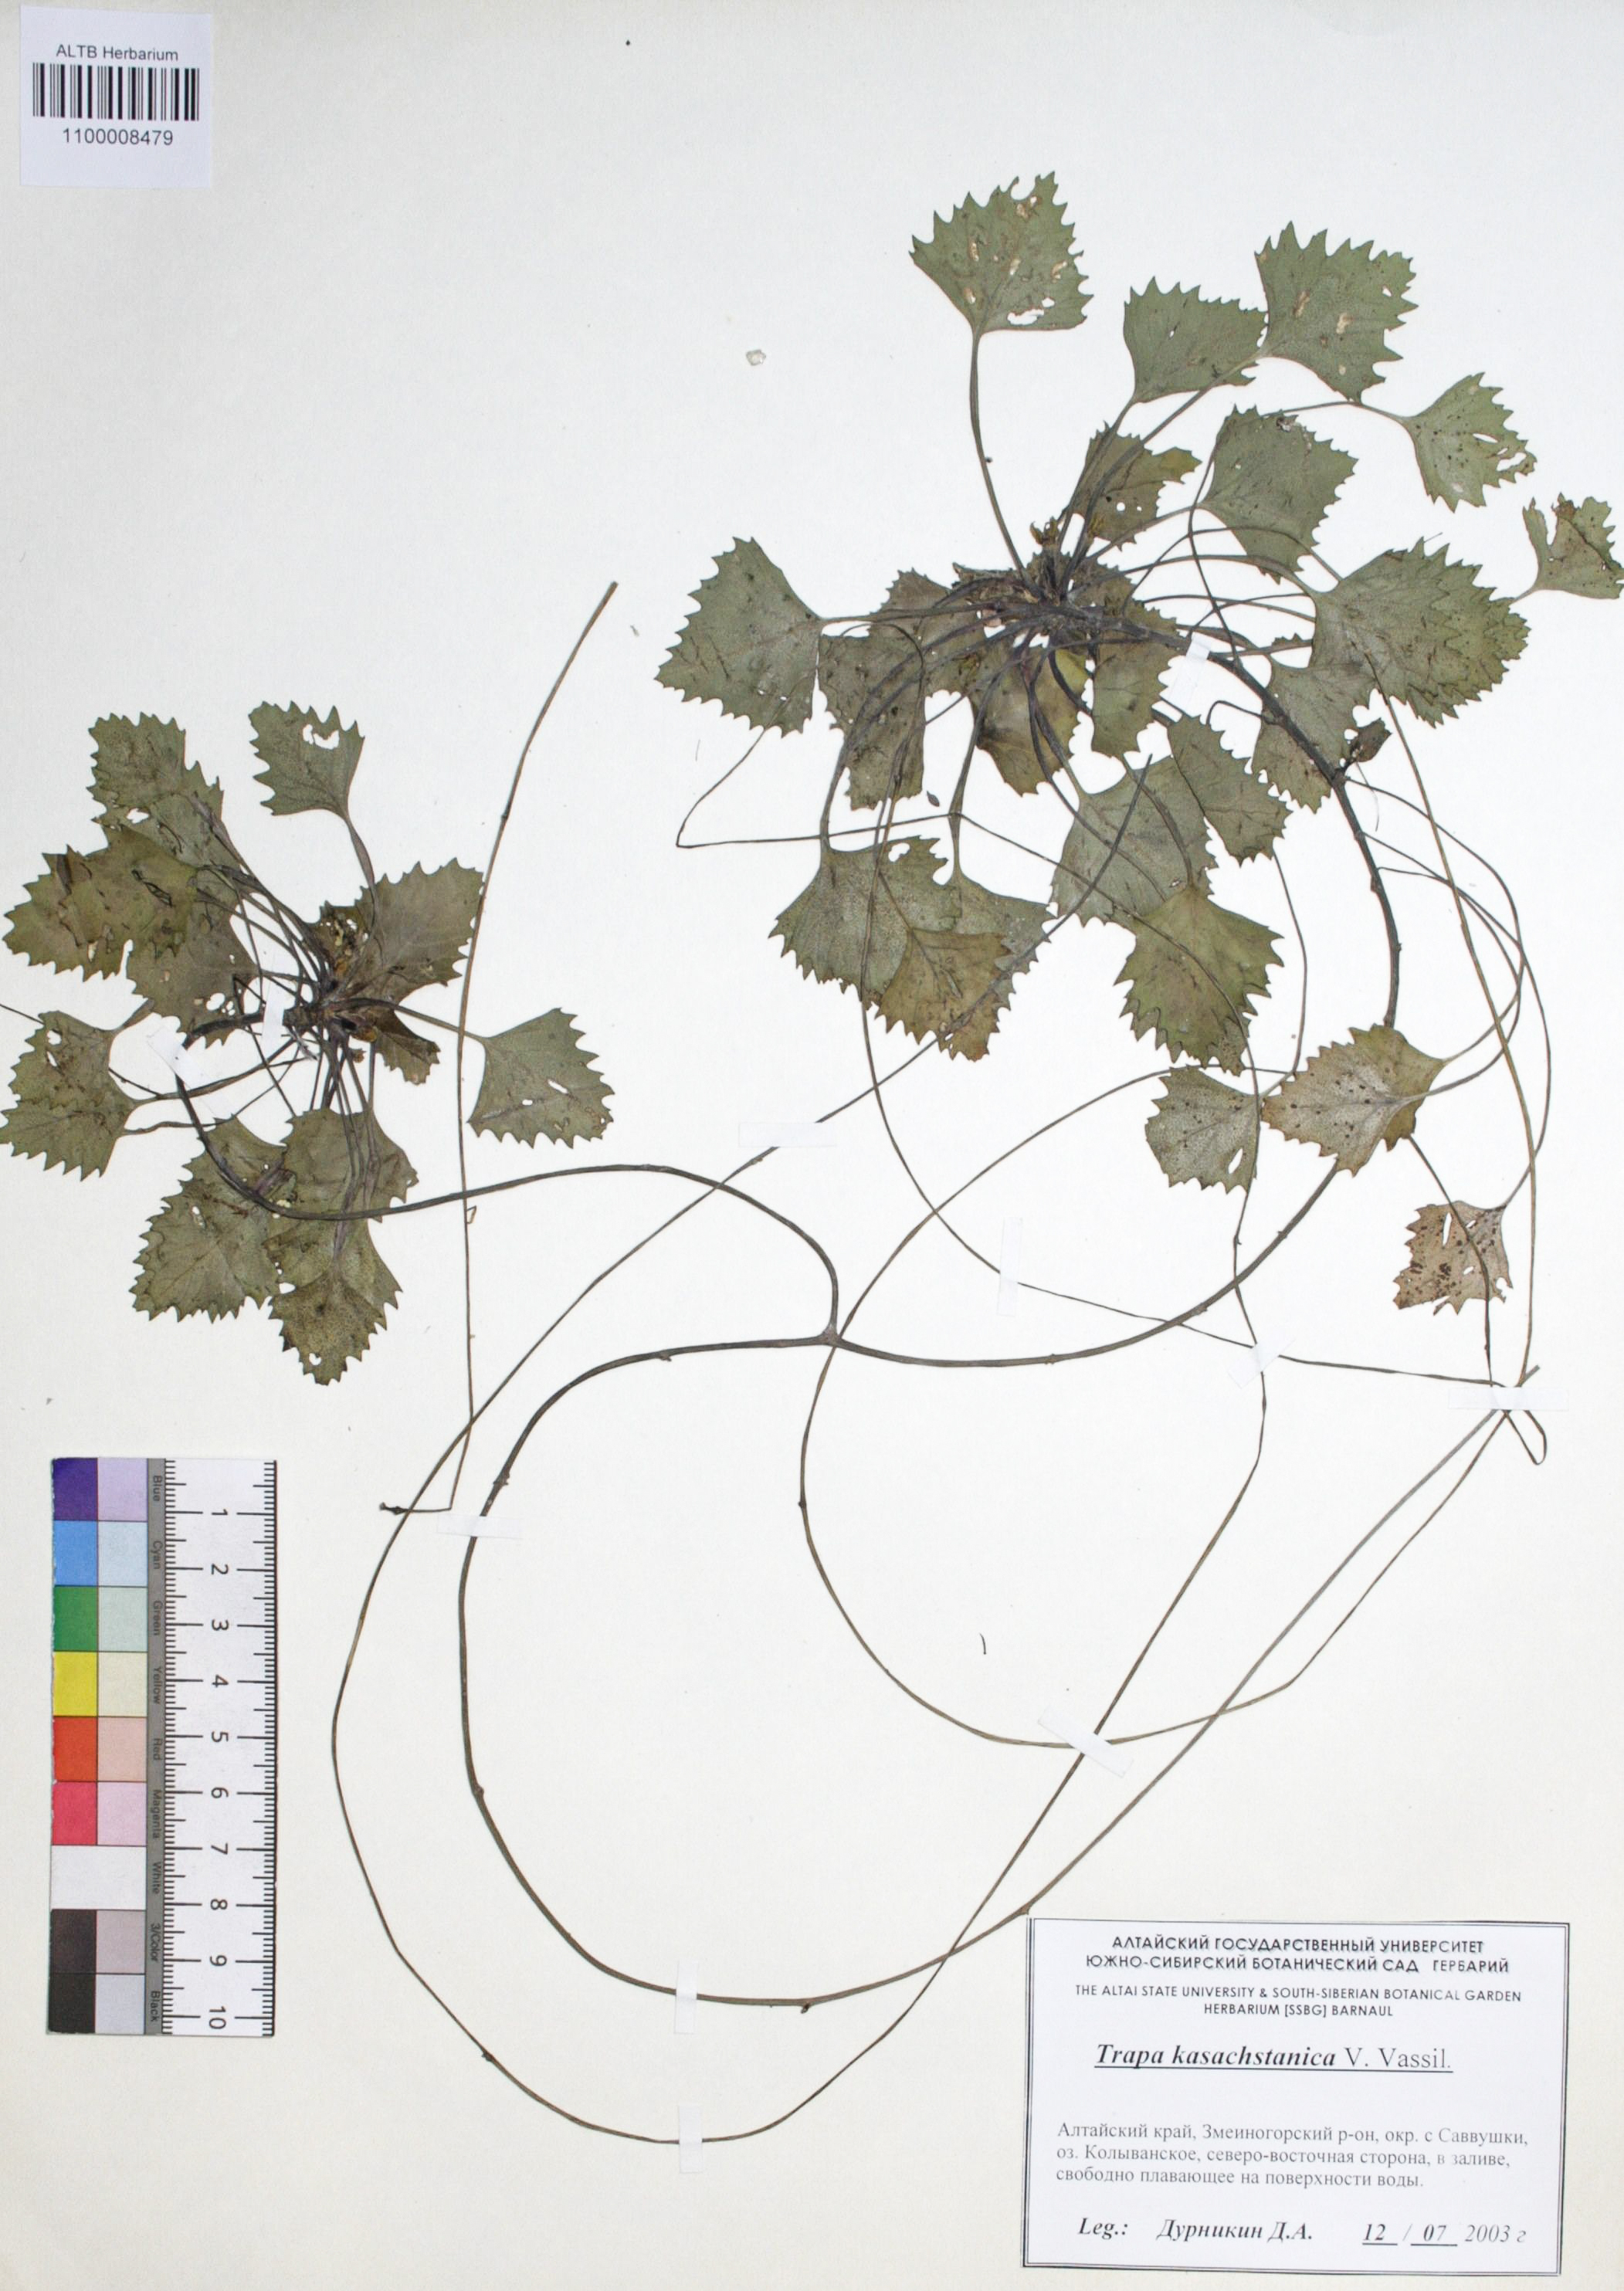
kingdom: Plantae
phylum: Tracheophyta
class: Magnoliopsida
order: Myrtales
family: Lythraceae
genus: Trapa
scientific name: Trapa natans
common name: Water chestnut
